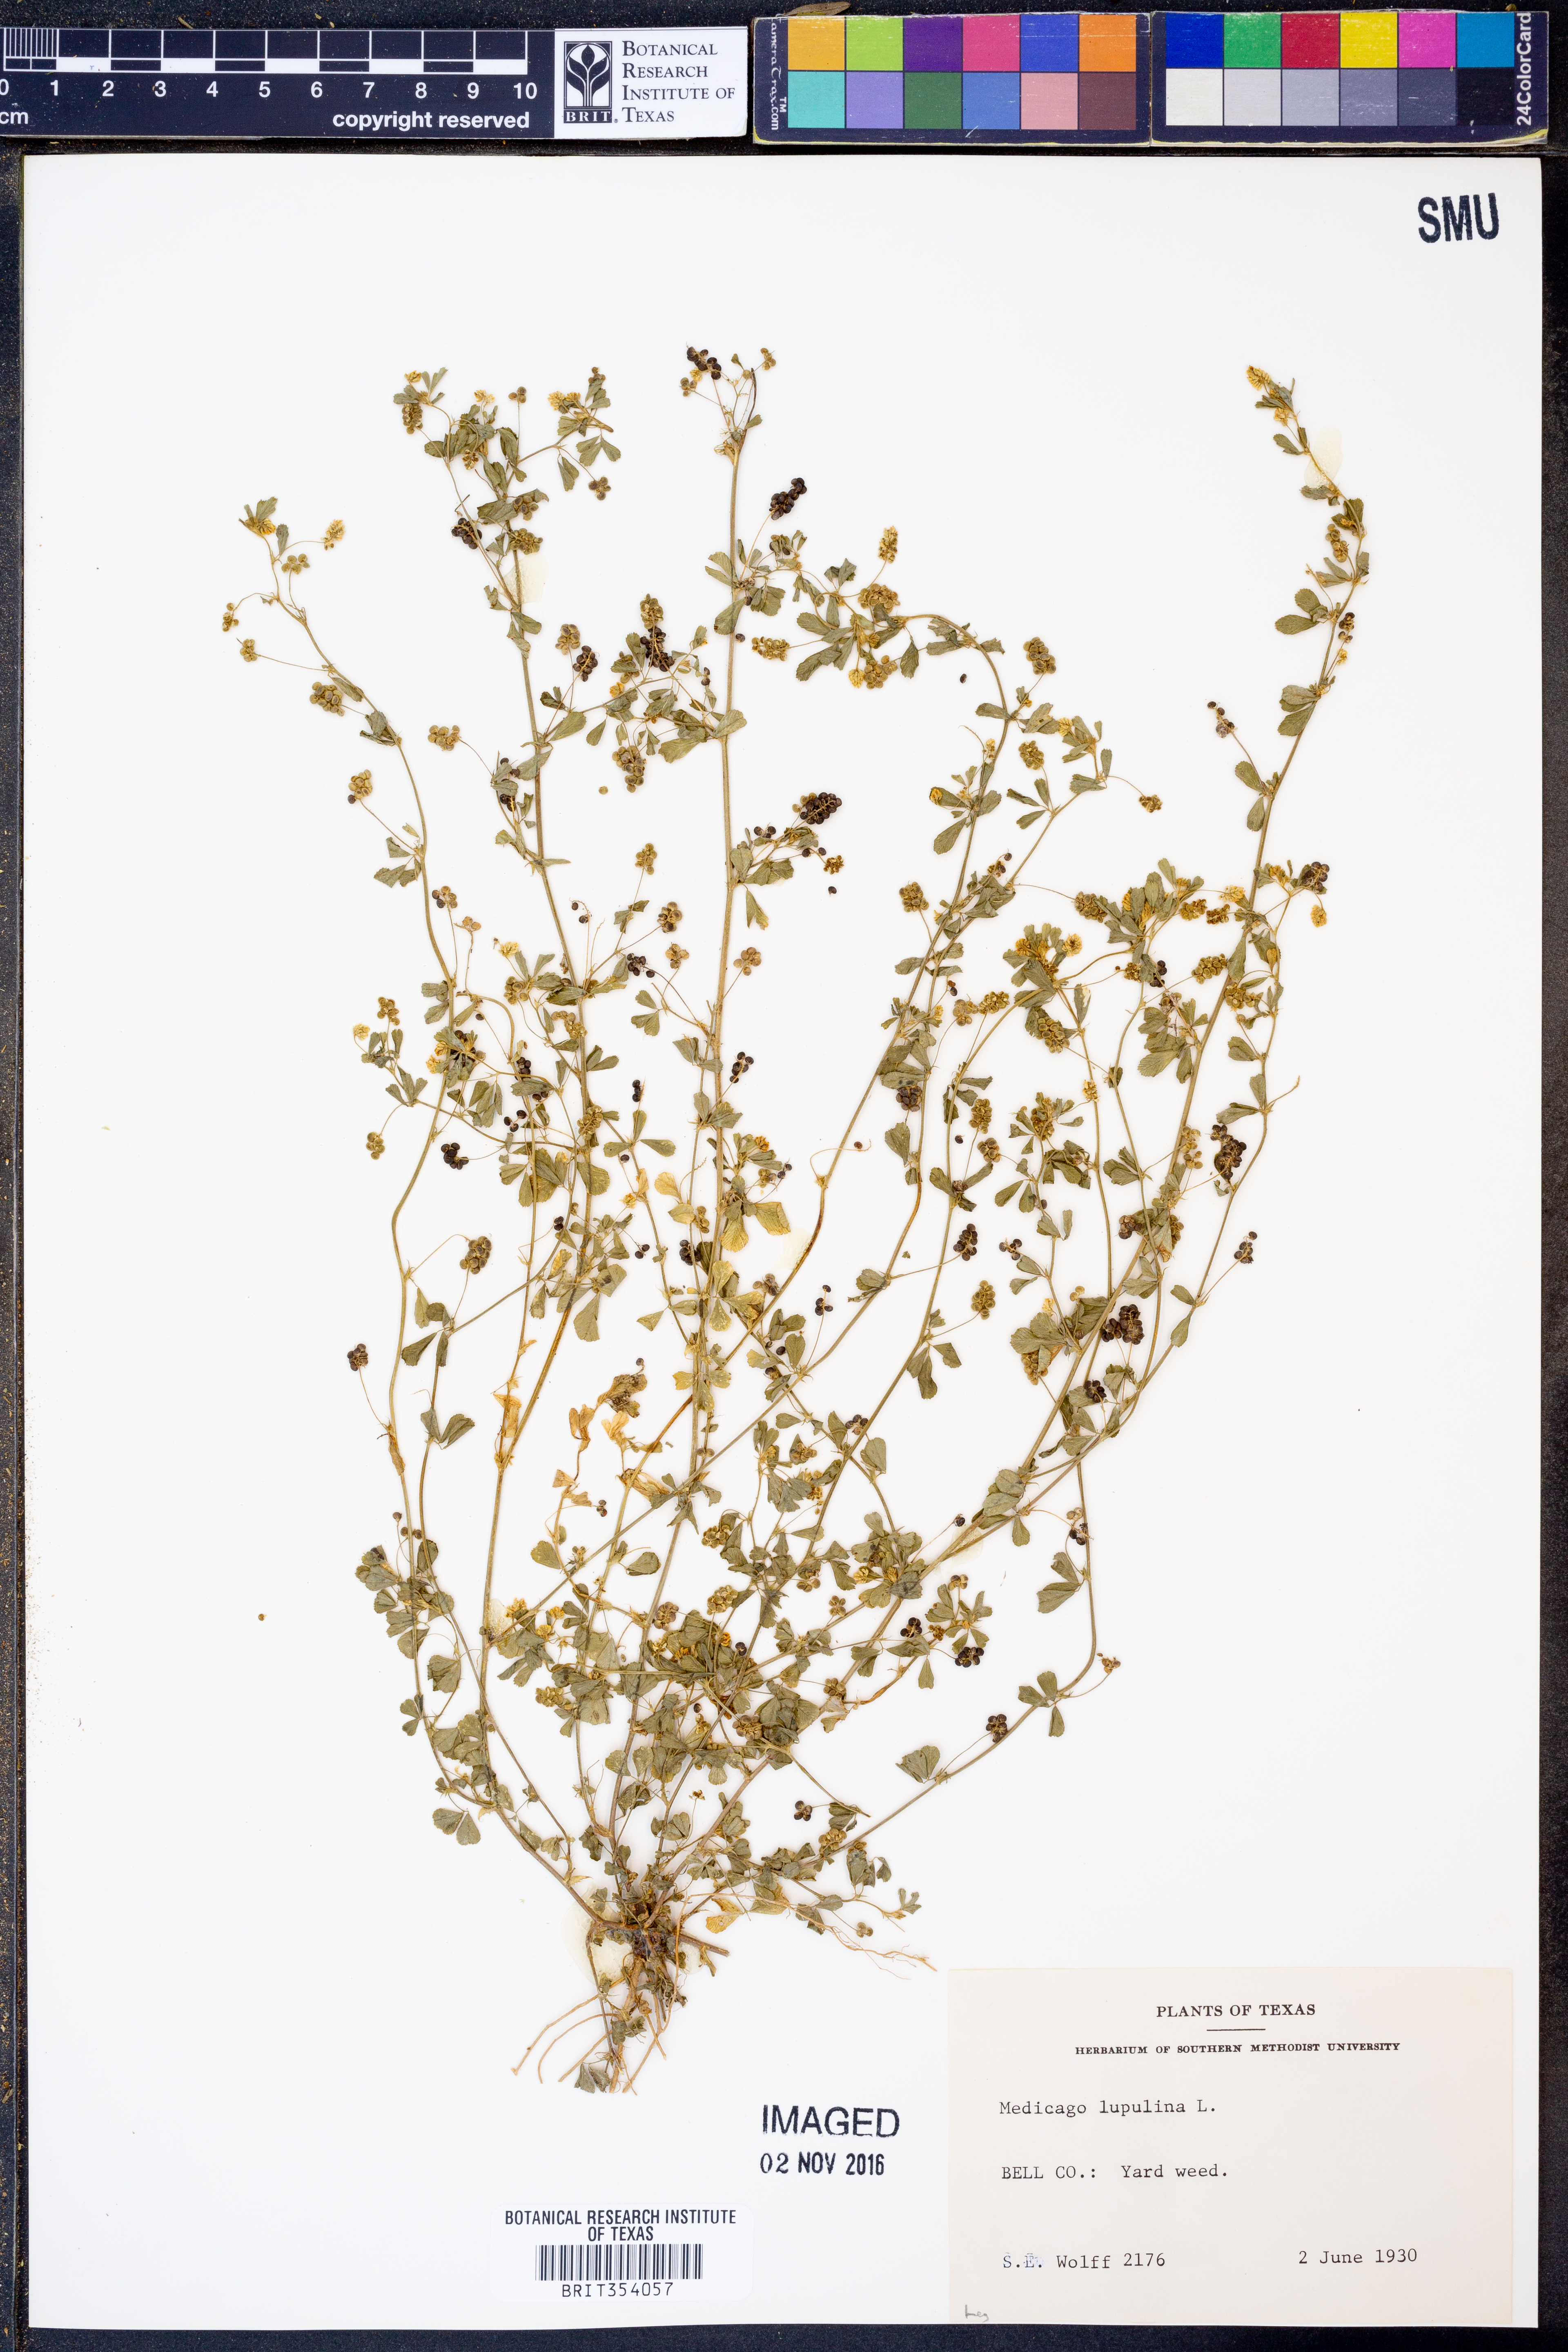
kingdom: Plantae
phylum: Tracheophyta
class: Magnoliopsida
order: Fabales
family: Fabaceae
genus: Medicago
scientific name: Medicago lupulina
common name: Black medick
